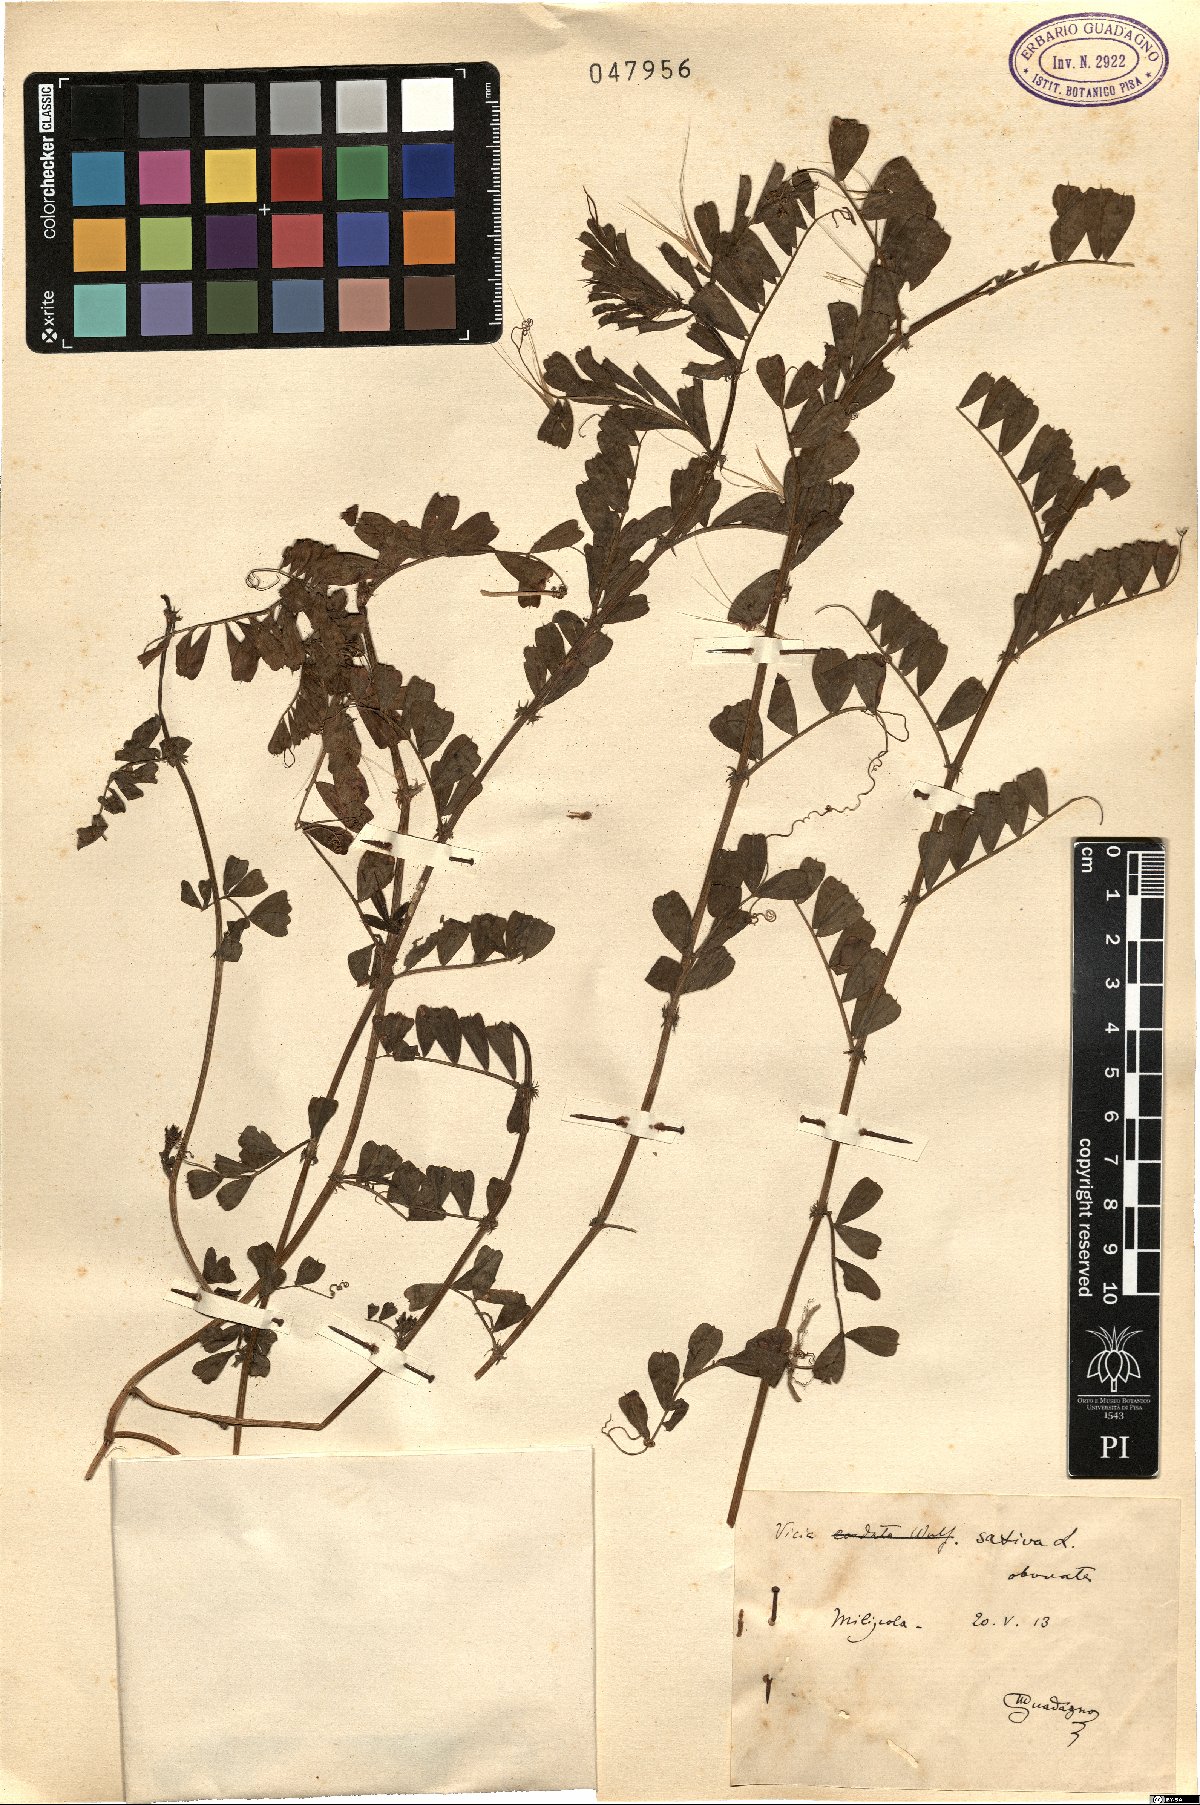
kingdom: Plantae
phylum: Tracheophyta
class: Magnoliopsida
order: Fabales
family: Fabaceae
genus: Vicia
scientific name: Vicia sativa
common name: Garden vetch
